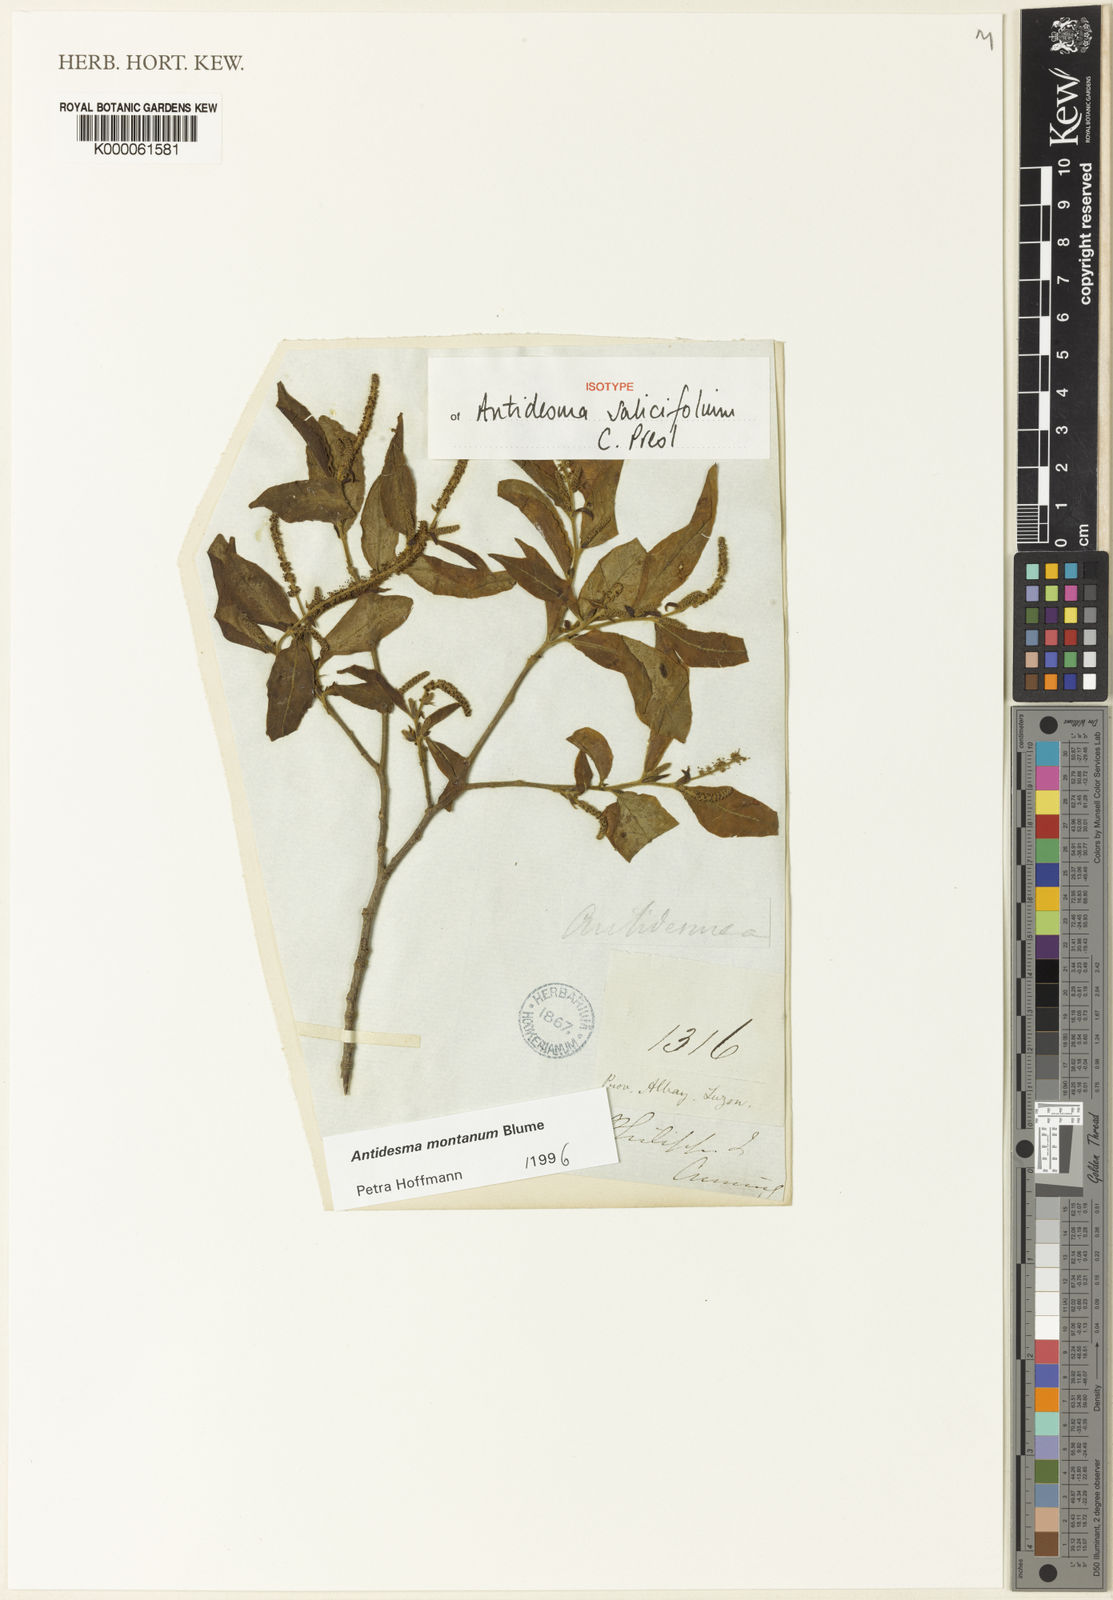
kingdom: Plantae
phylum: Tracheophyta
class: Magnoliopsida
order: Malpighiales
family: Phyllanthaceae
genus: Antidesma
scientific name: Antidesma montanum
